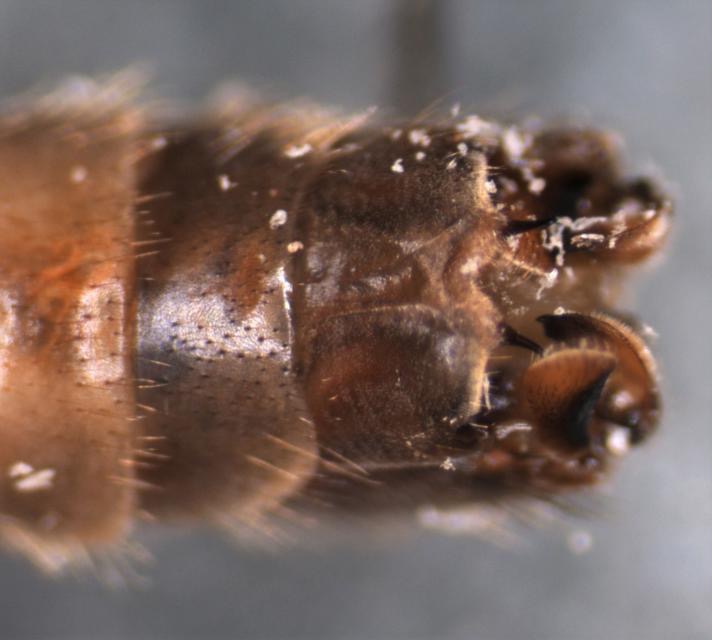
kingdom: Animalia
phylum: Arthropoda
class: Insecta
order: Diptera
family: Tipulidae
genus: Tipula
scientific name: Tipula rufina
